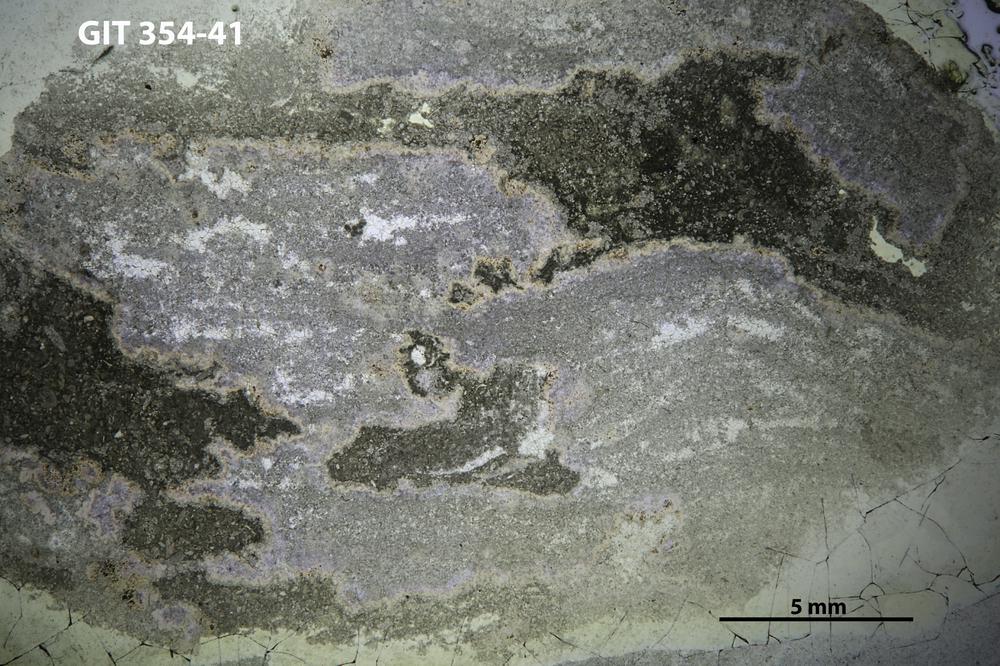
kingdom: Animalia
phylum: Porifera
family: Pseudolabechiidae
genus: Plumatalinia
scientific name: Plumatalinia ferax
